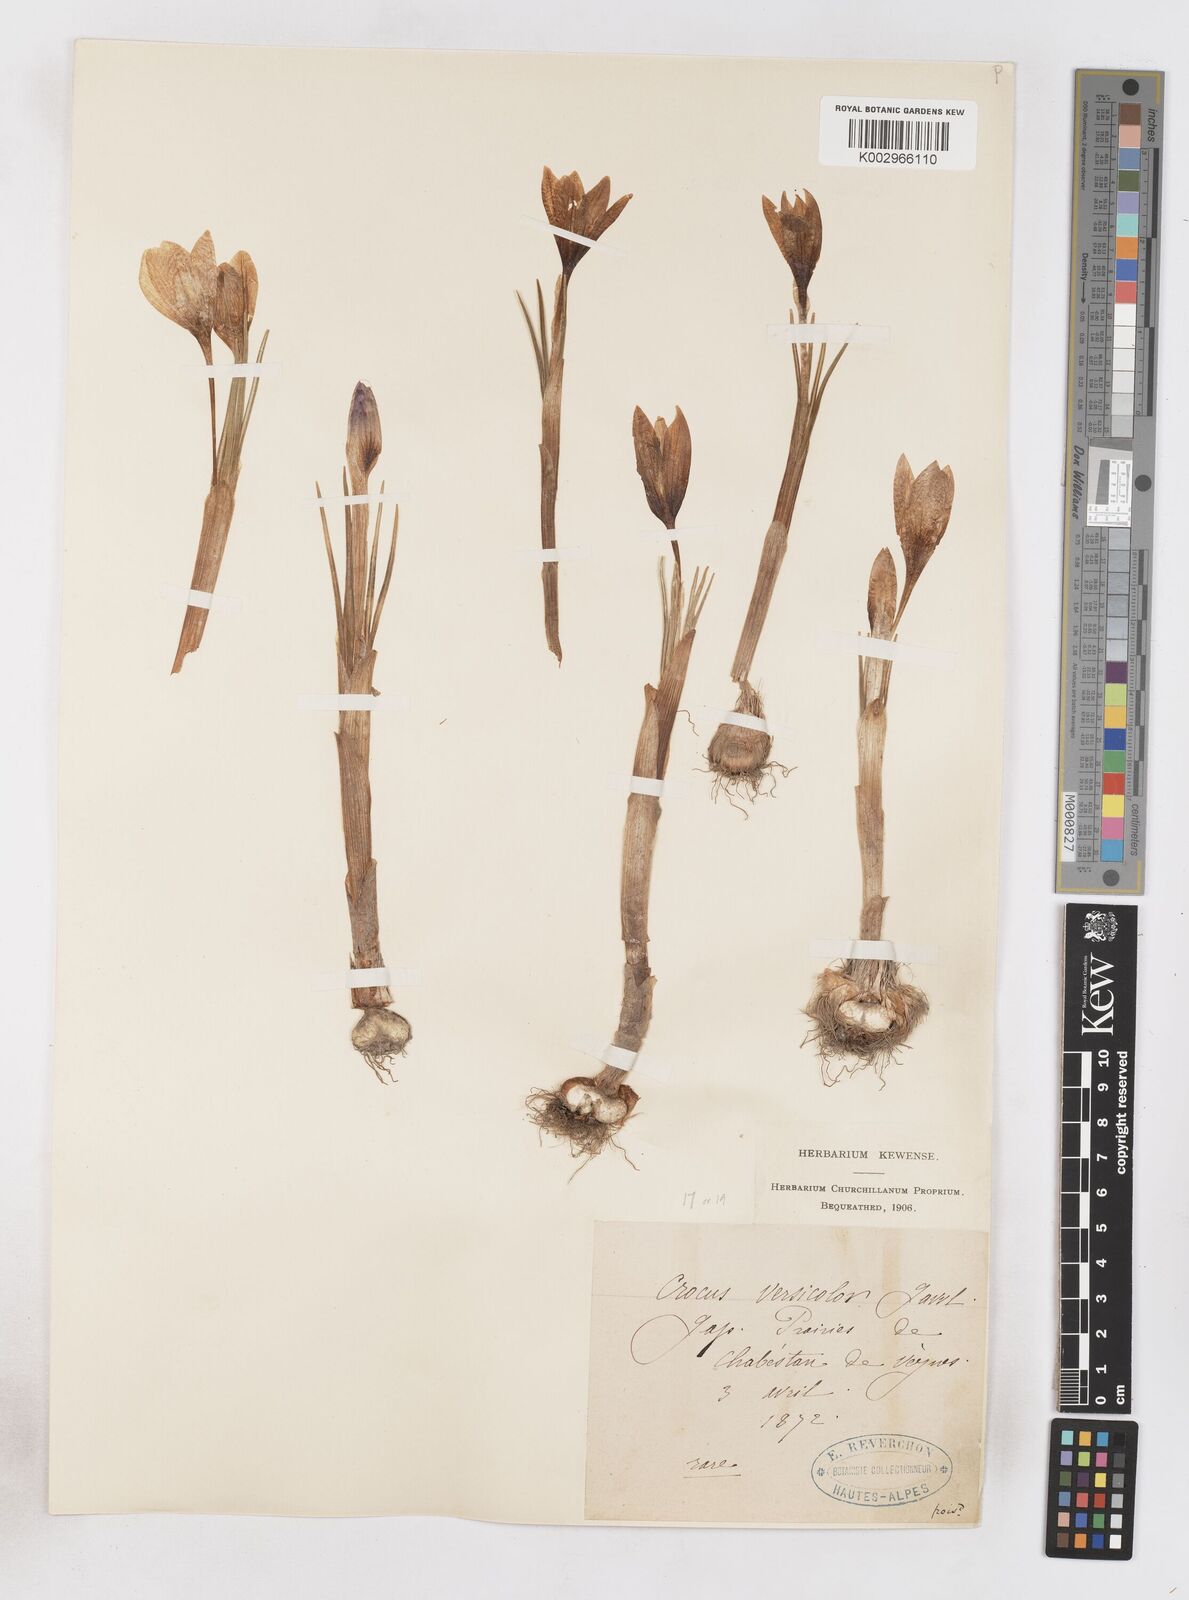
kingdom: Plantae
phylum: Tracheophyta
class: Liliopsida
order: Asparagales
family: Iridaceae
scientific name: Iridaceae
